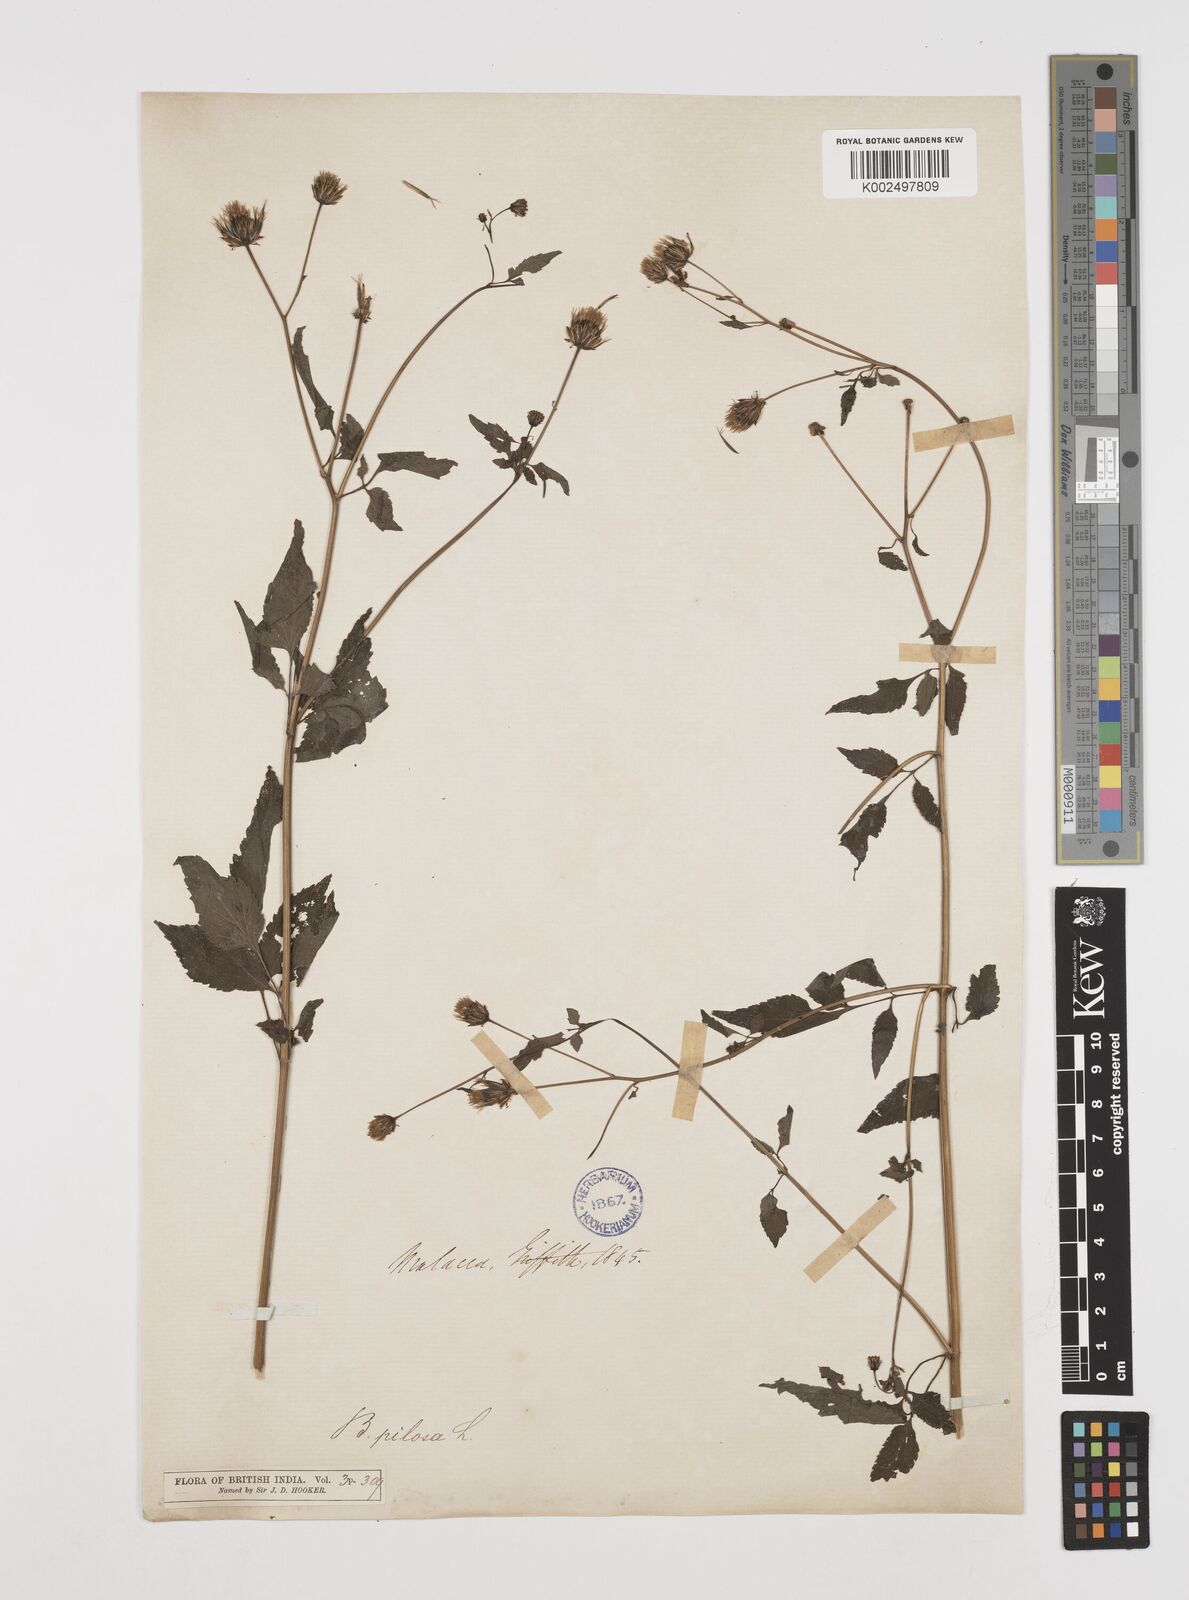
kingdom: Plantae
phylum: Tracheophyta
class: Magnoliopsida
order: Asterales
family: Asteraceae
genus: Bidens
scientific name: Bidens pilosa
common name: Black-jack
